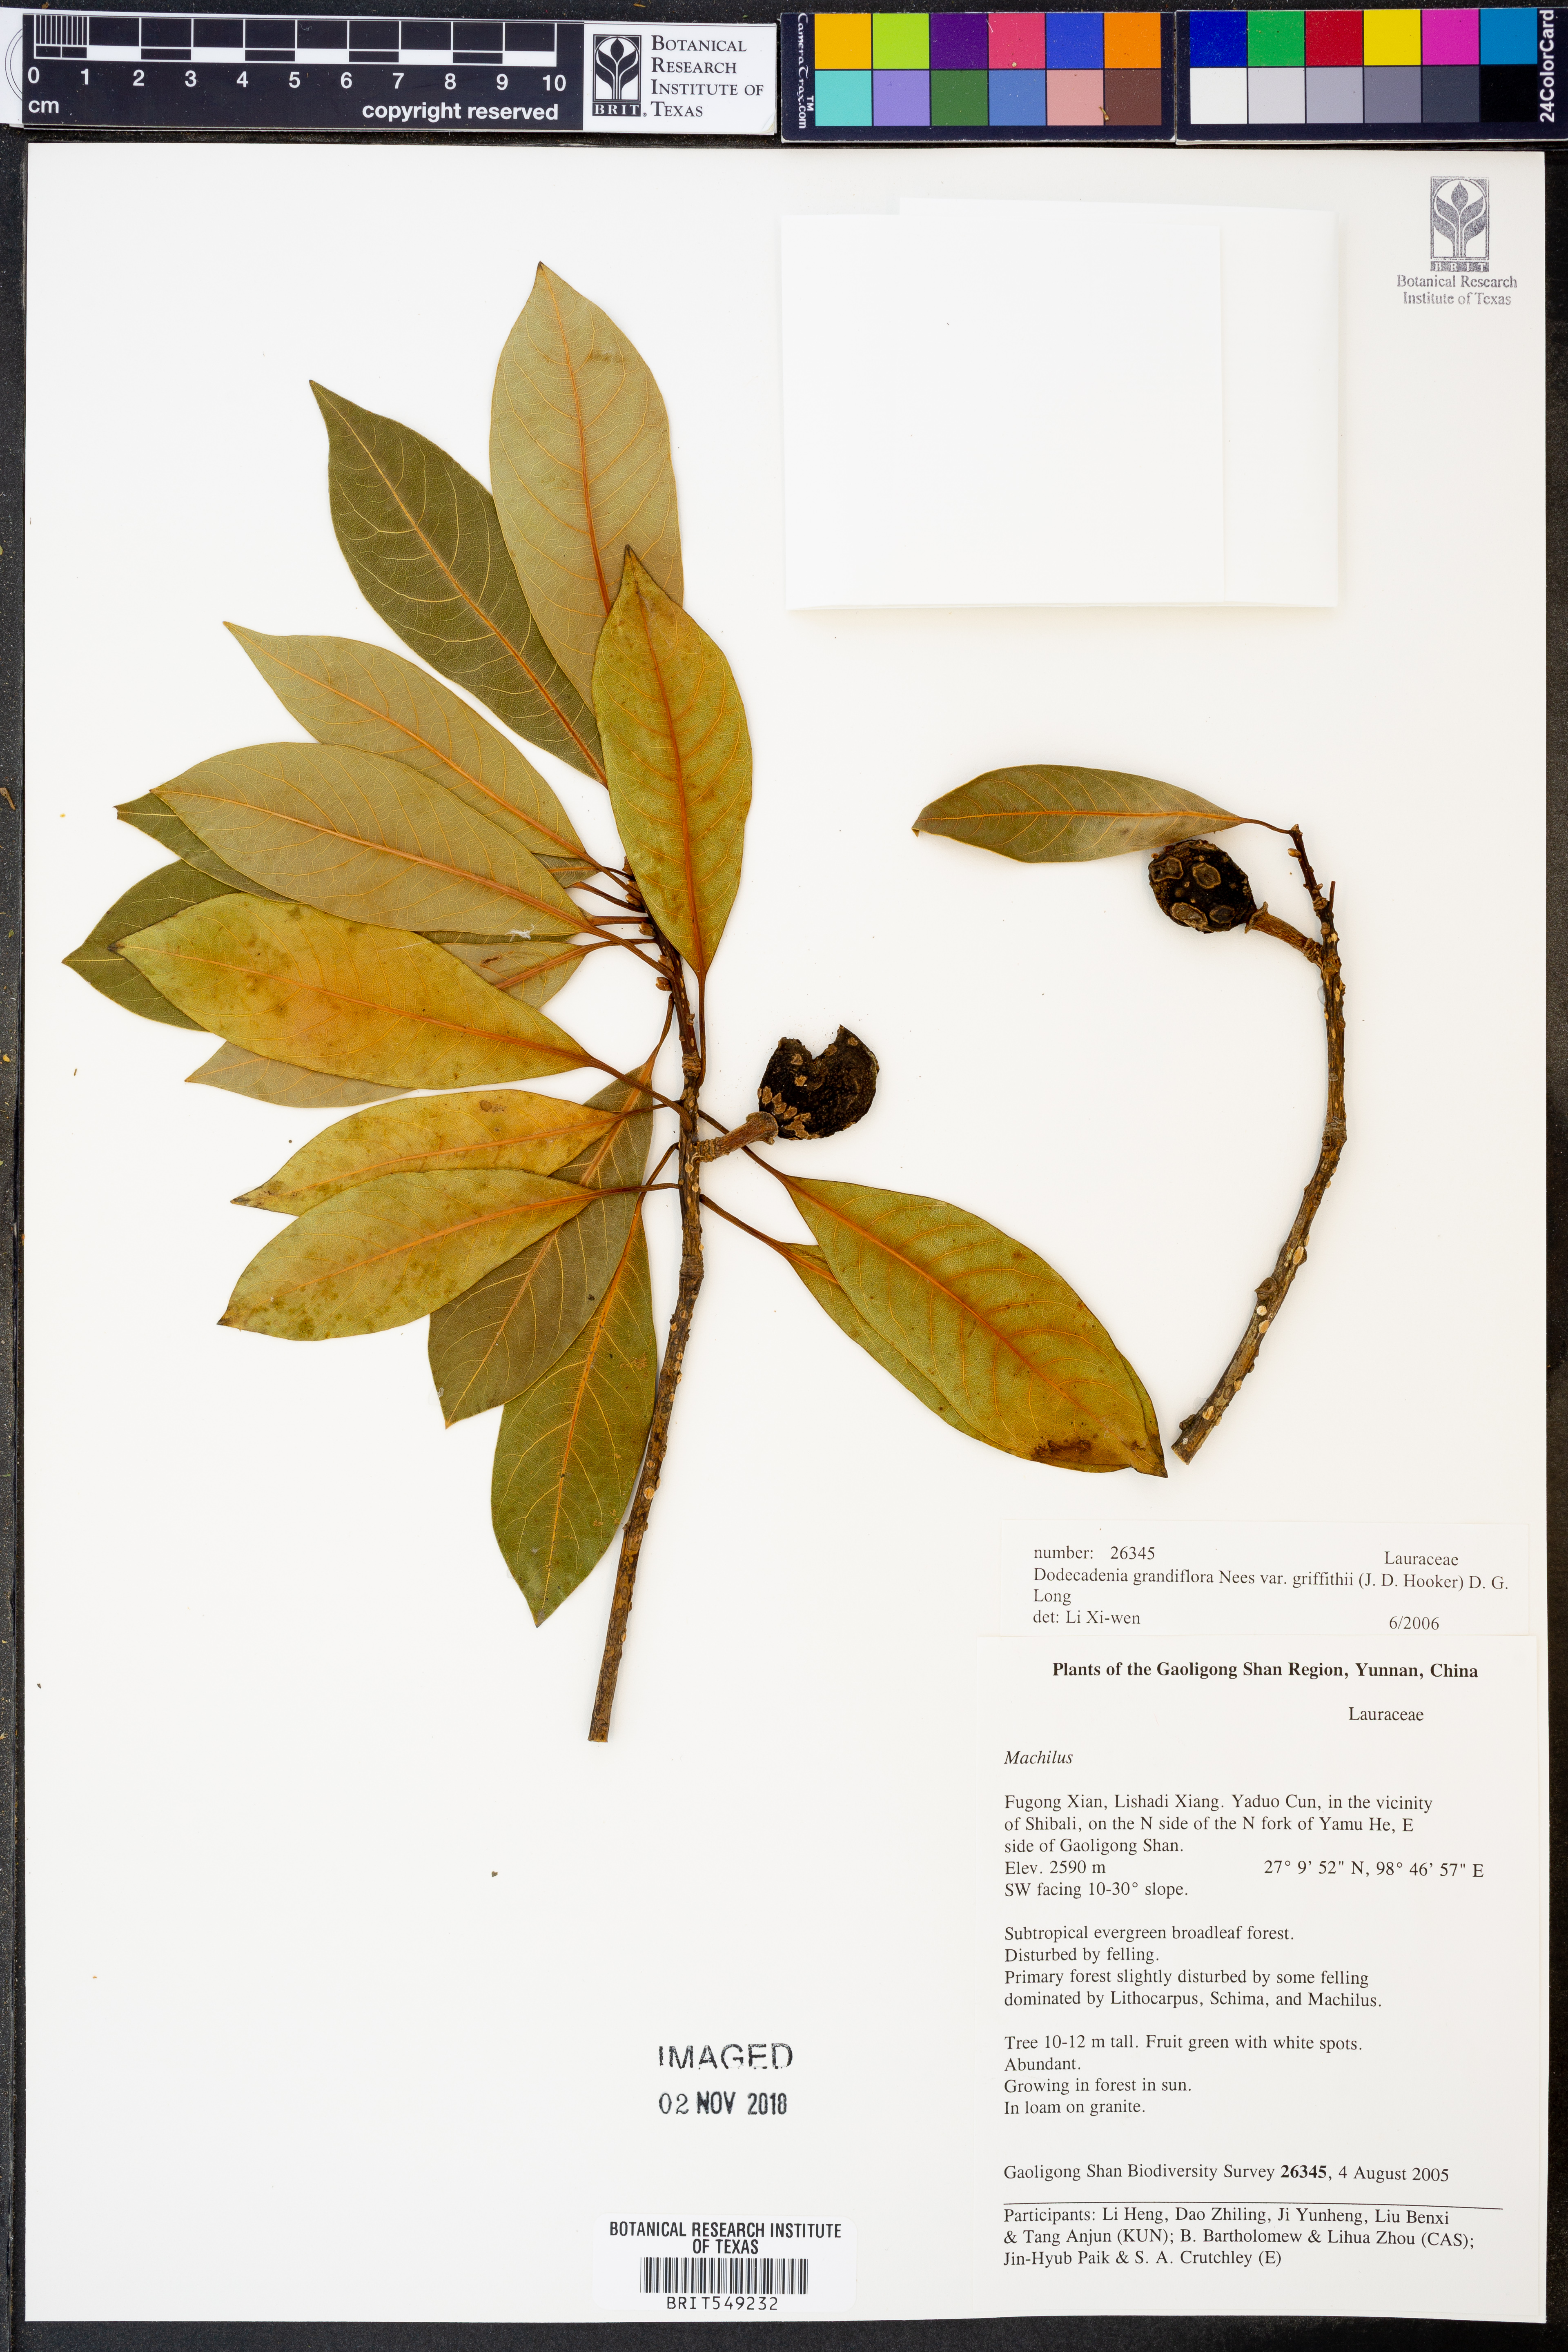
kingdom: Plantae
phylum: Tracheophyta
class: Magnoliopsida
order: Laurales
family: Lauraceae
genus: Dodecadenia
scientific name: Dodecadenia grandiflora
